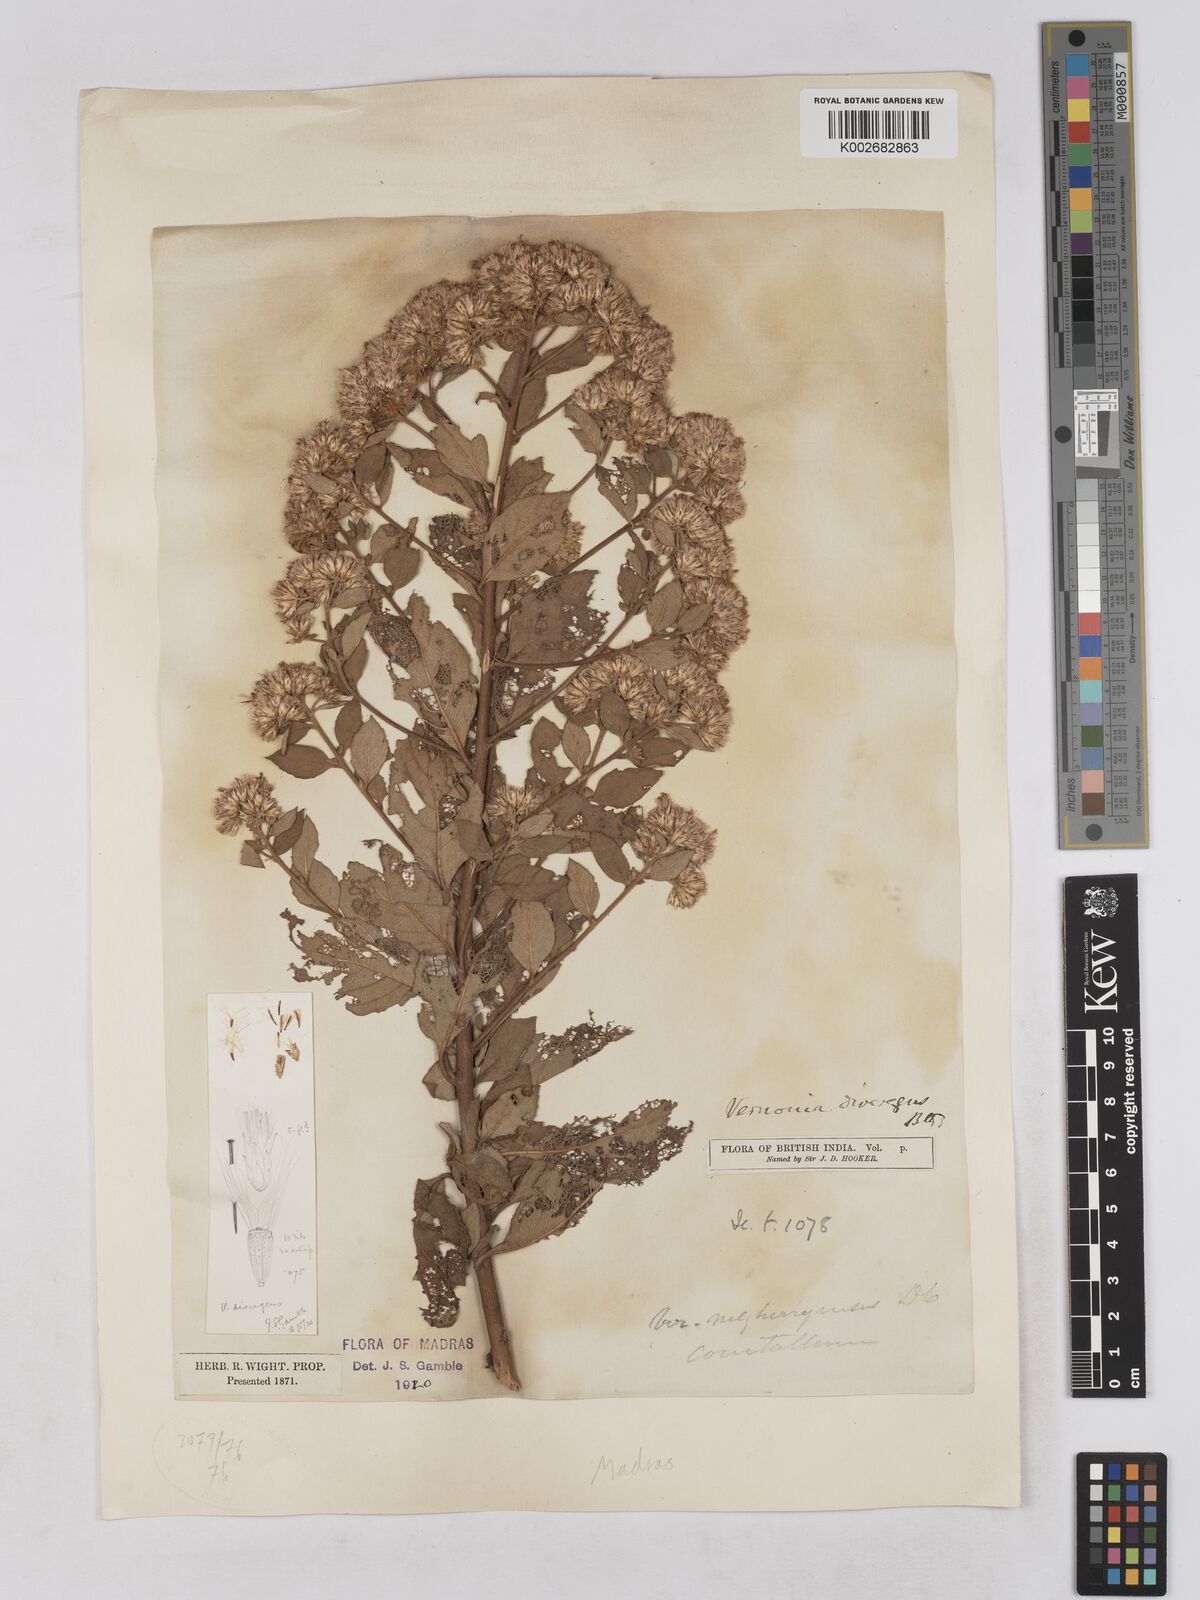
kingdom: Plantae
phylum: Tracheophyta
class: Magnoliopsida
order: Asterales
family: Asteraceae
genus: Acilepis
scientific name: Acilepis divergens
